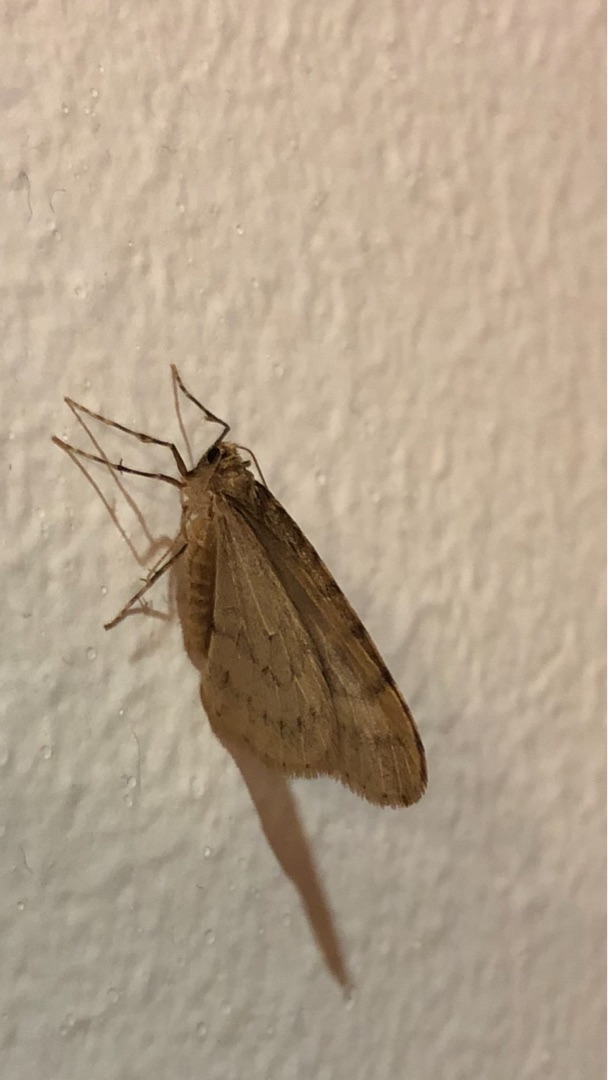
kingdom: Animalia
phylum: Arthropoda
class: Insecta
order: Lepidoptera
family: Geometridae
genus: Operophtera
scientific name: Operophtera brumata
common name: Lille frostmåler
